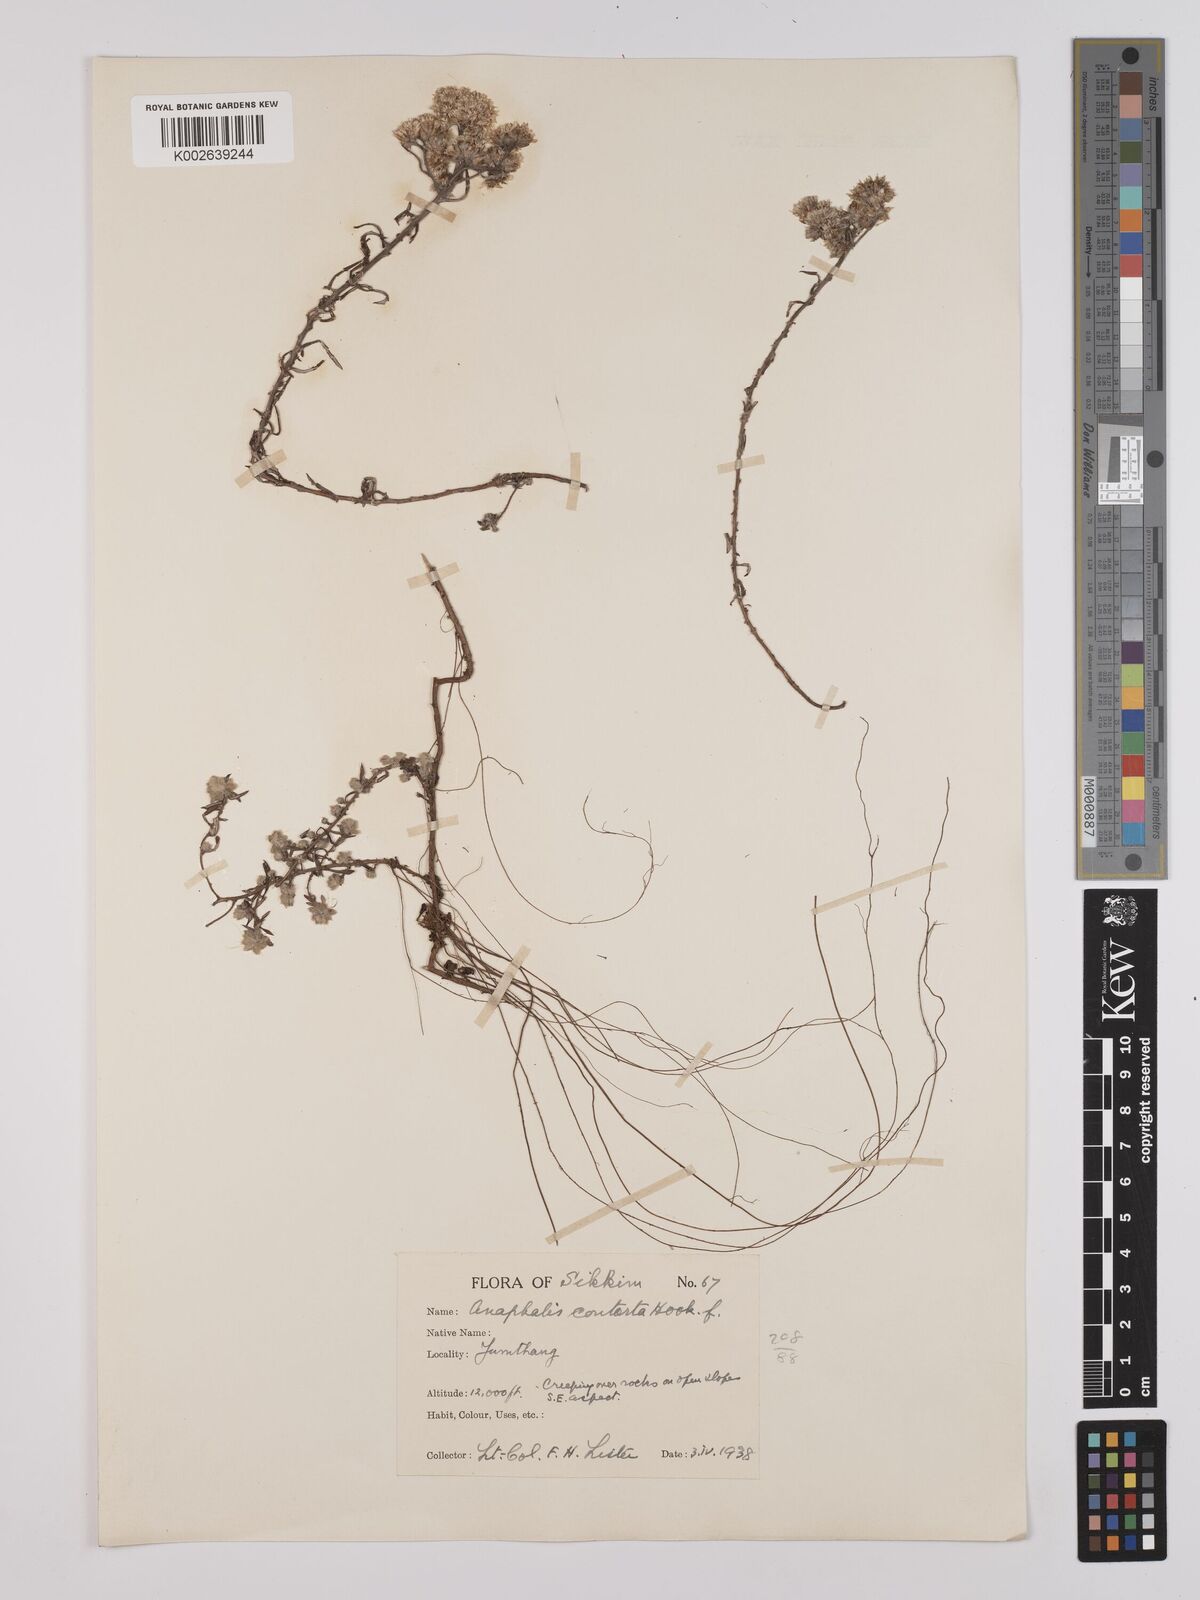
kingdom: Plantae
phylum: Tracheophyta
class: Magnoliopsida
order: Asterales
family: Asteraceae
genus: Anaphalis
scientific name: Anaphalis contorta
